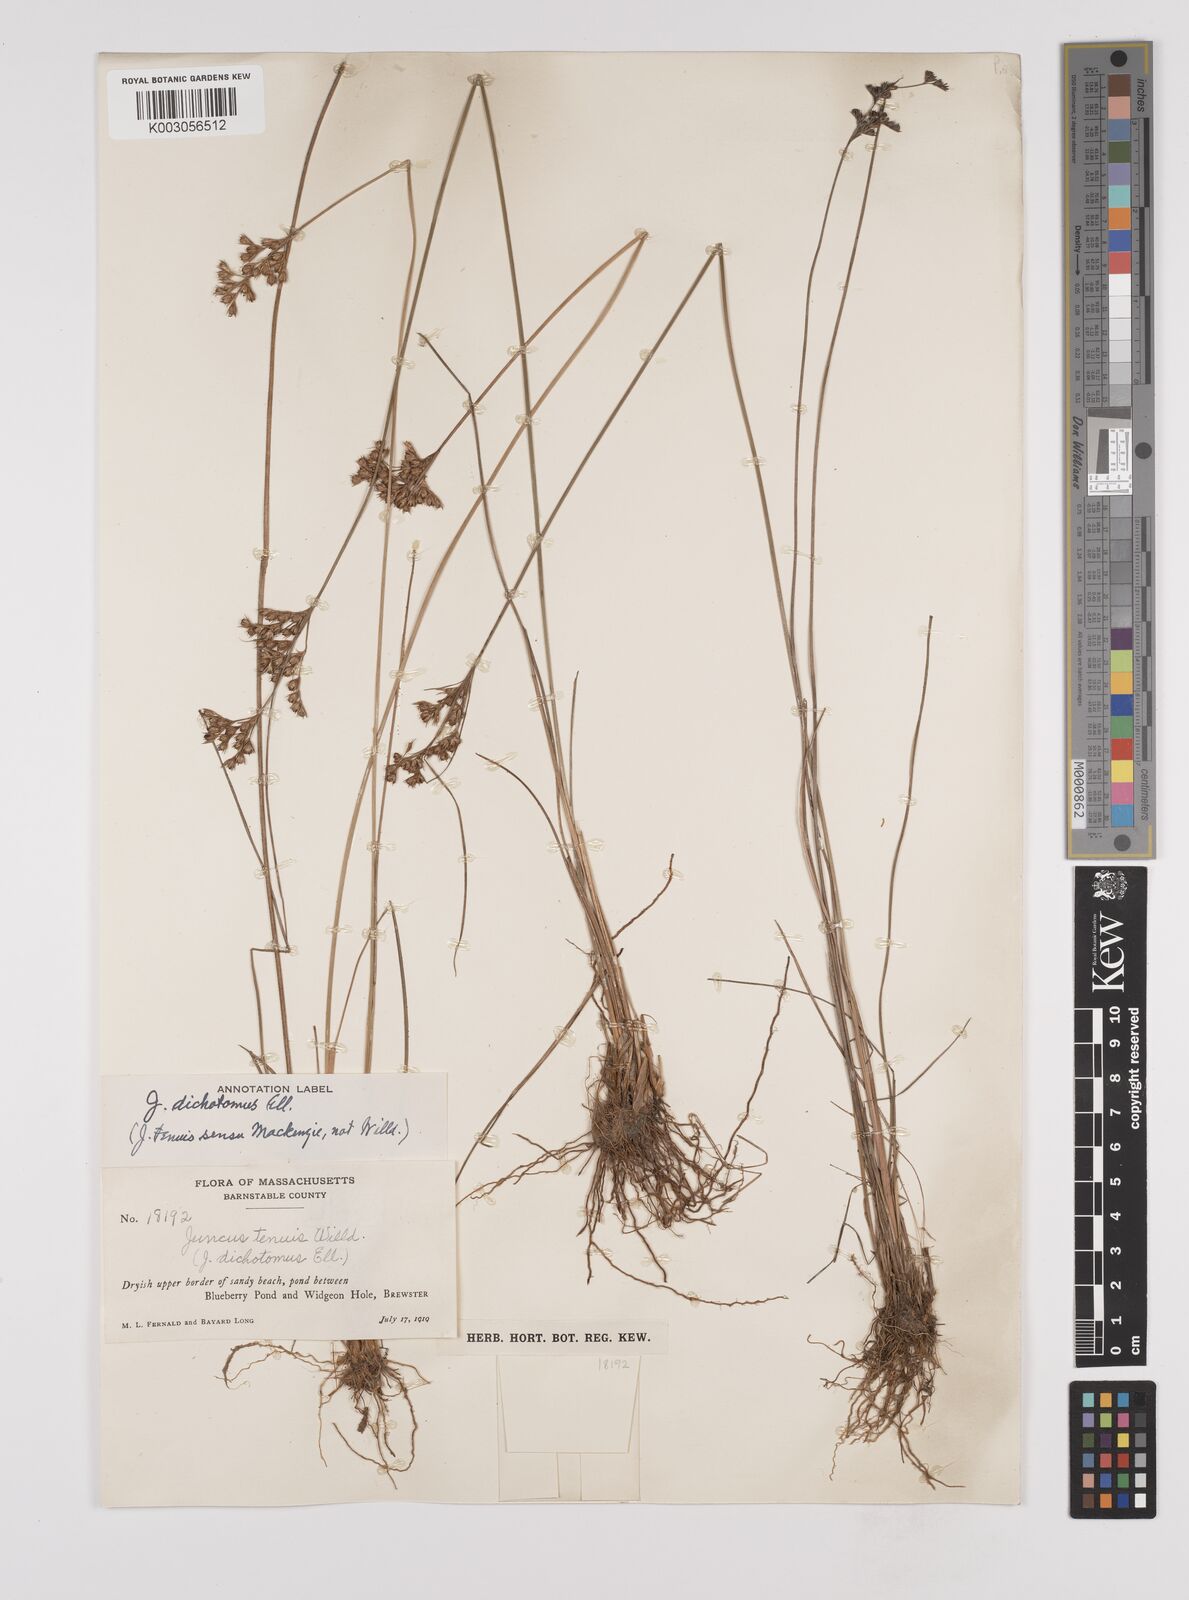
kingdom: Plantae
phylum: Tracheophyta
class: Liliopsida
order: Poales
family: Juncaceae
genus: Juncus
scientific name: Juncus dichotomus
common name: Forked rush
